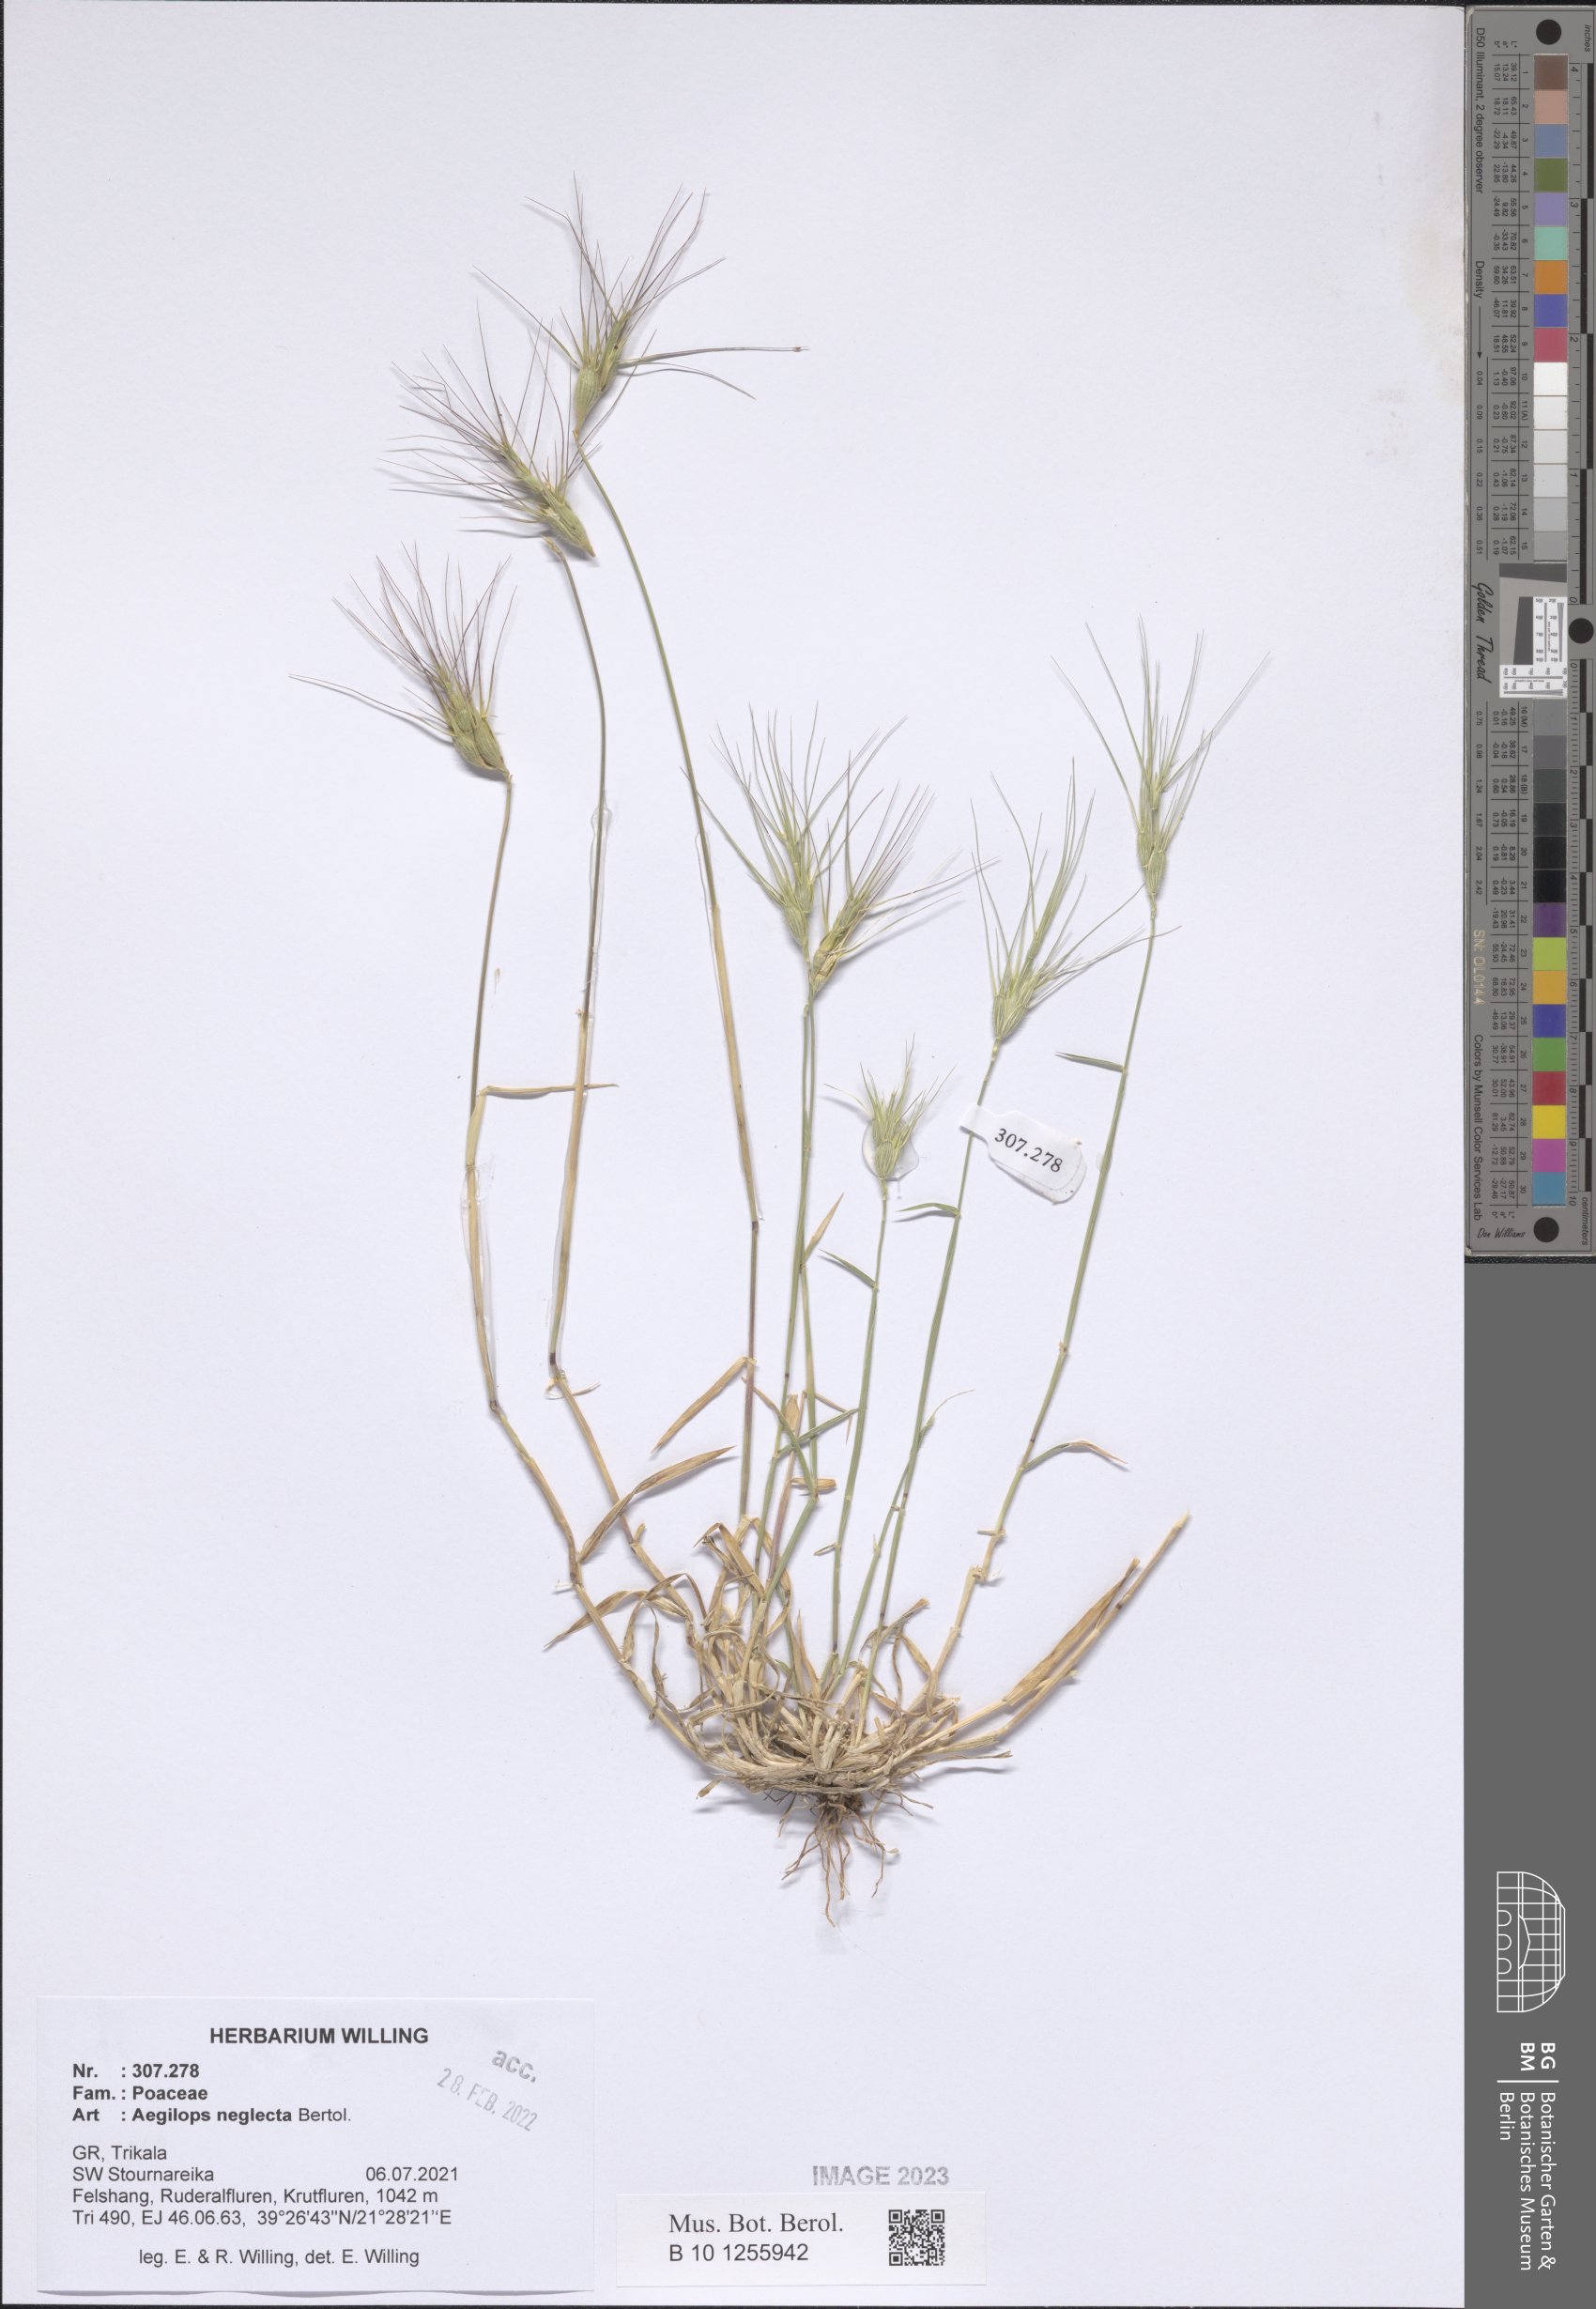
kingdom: Plantae
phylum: Tracheophyta
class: Liliopsida
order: Poales
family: Poaceae
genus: Aegilops
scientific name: Aegilops neglecta
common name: Three-awn goat grass
